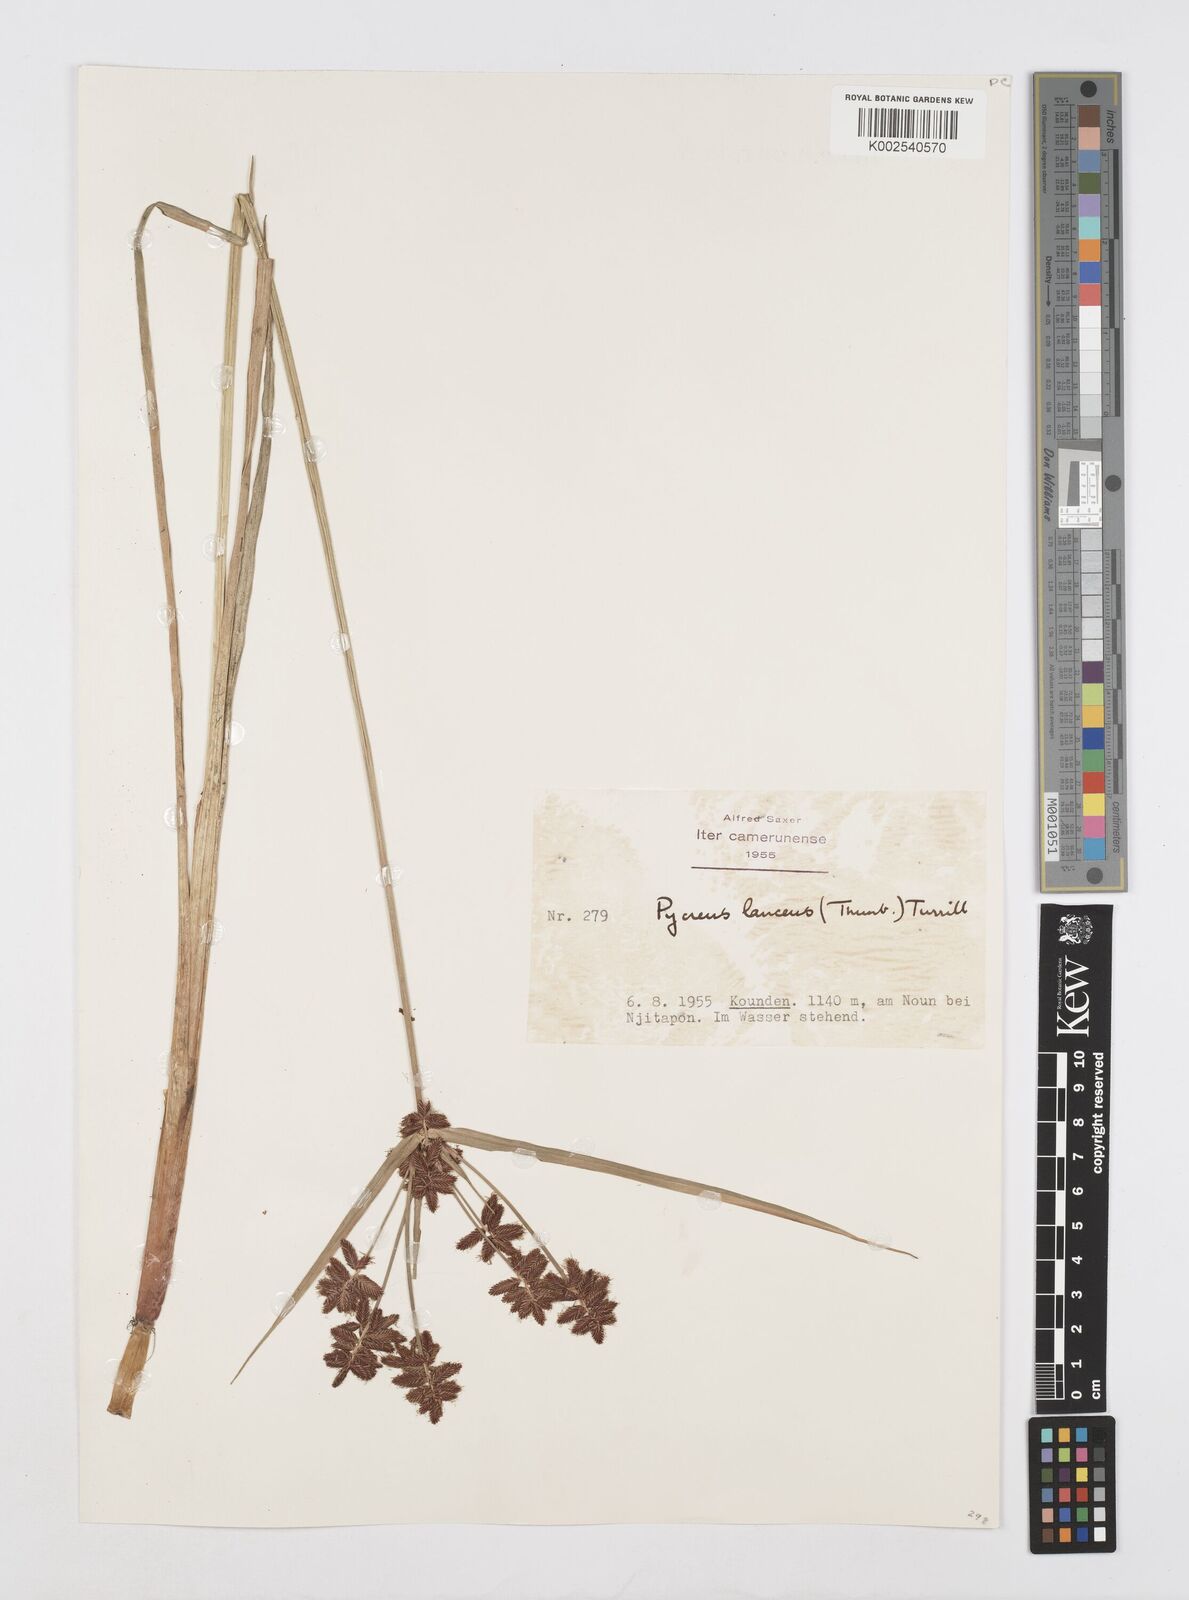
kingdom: Plantae
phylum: Tracheophyta
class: Liliopsida
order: Poales
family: Cyperaceae
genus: Cyperus
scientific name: Cyperus nitidus
